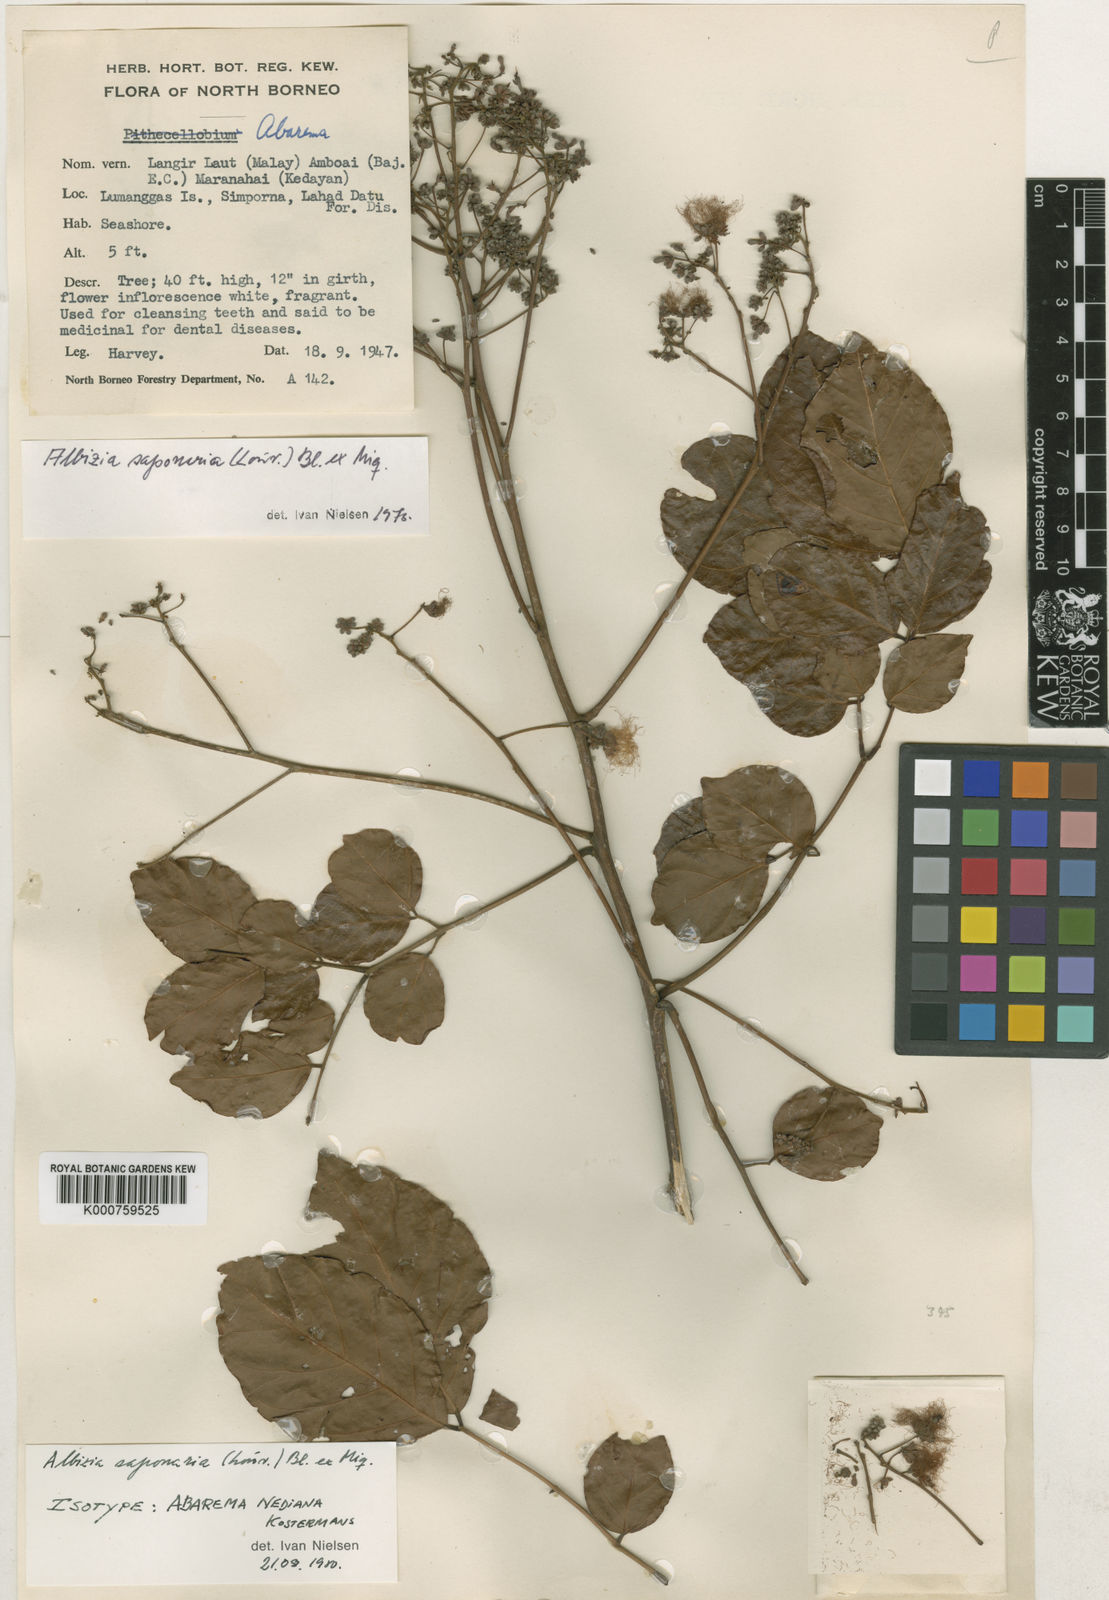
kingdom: Plantae
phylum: Tracheophyta
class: Magnoliopsida
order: Fabales
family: Fabaceae
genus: Albizia
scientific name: Albizia saponaria
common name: Whiteflower albizia
